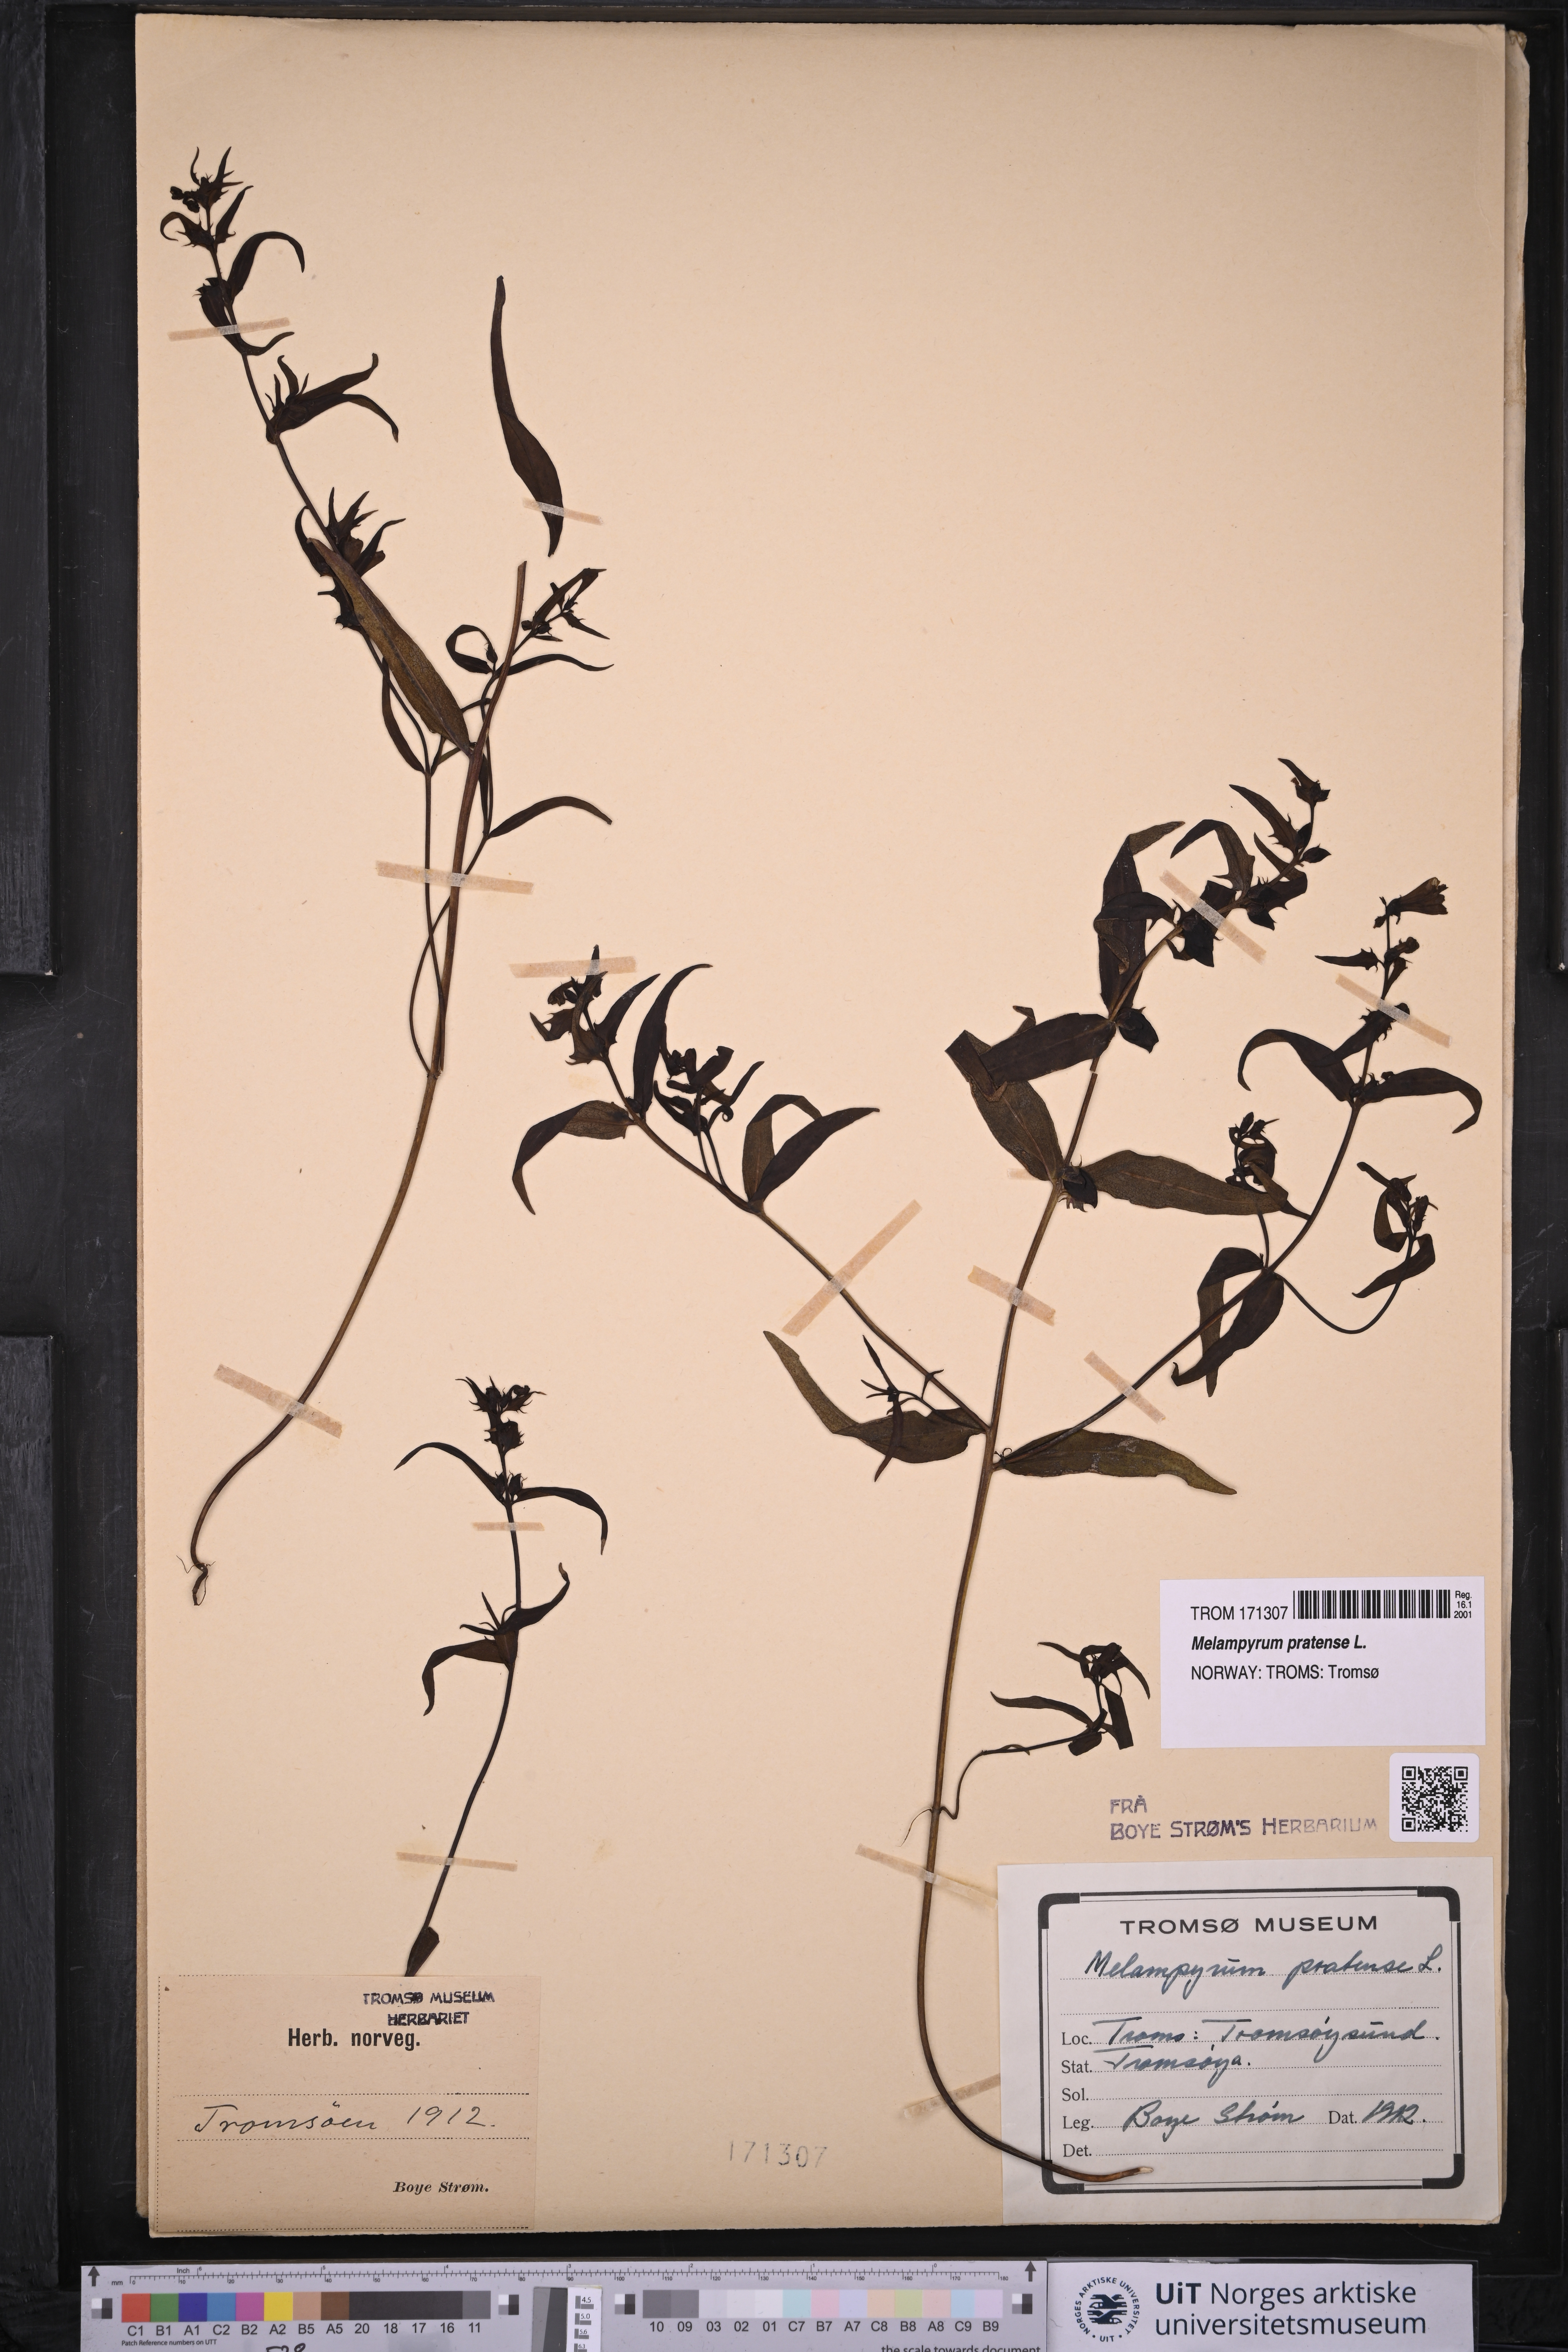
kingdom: Plantae
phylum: Tracheophyta
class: Magnoliopsida
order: Lamiales
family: Orobanchaceae
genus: Melampyrum
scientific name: Melampyrum pratense
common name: Common cow-wheat
